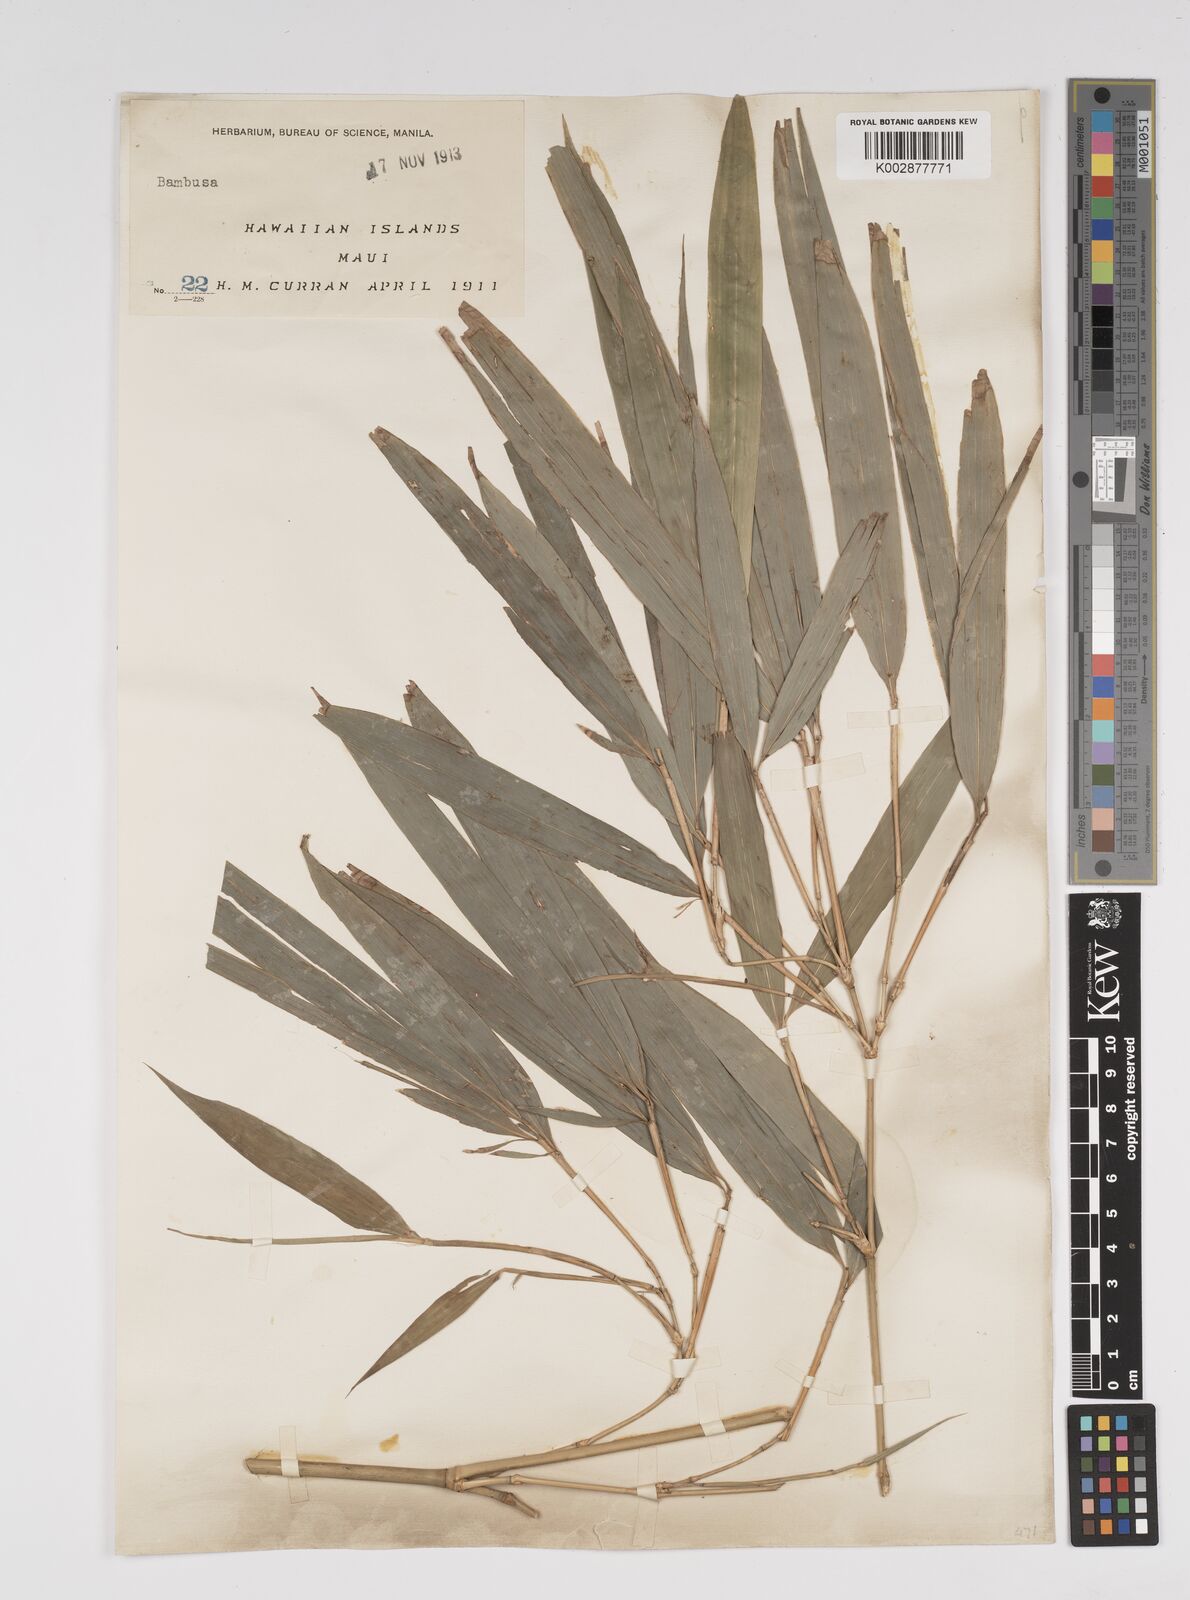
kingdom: Plantae
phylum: Tracheophyta
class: Liliopsida
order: Poales
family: Poaceae
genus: Bambusa
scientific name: Bambusa
